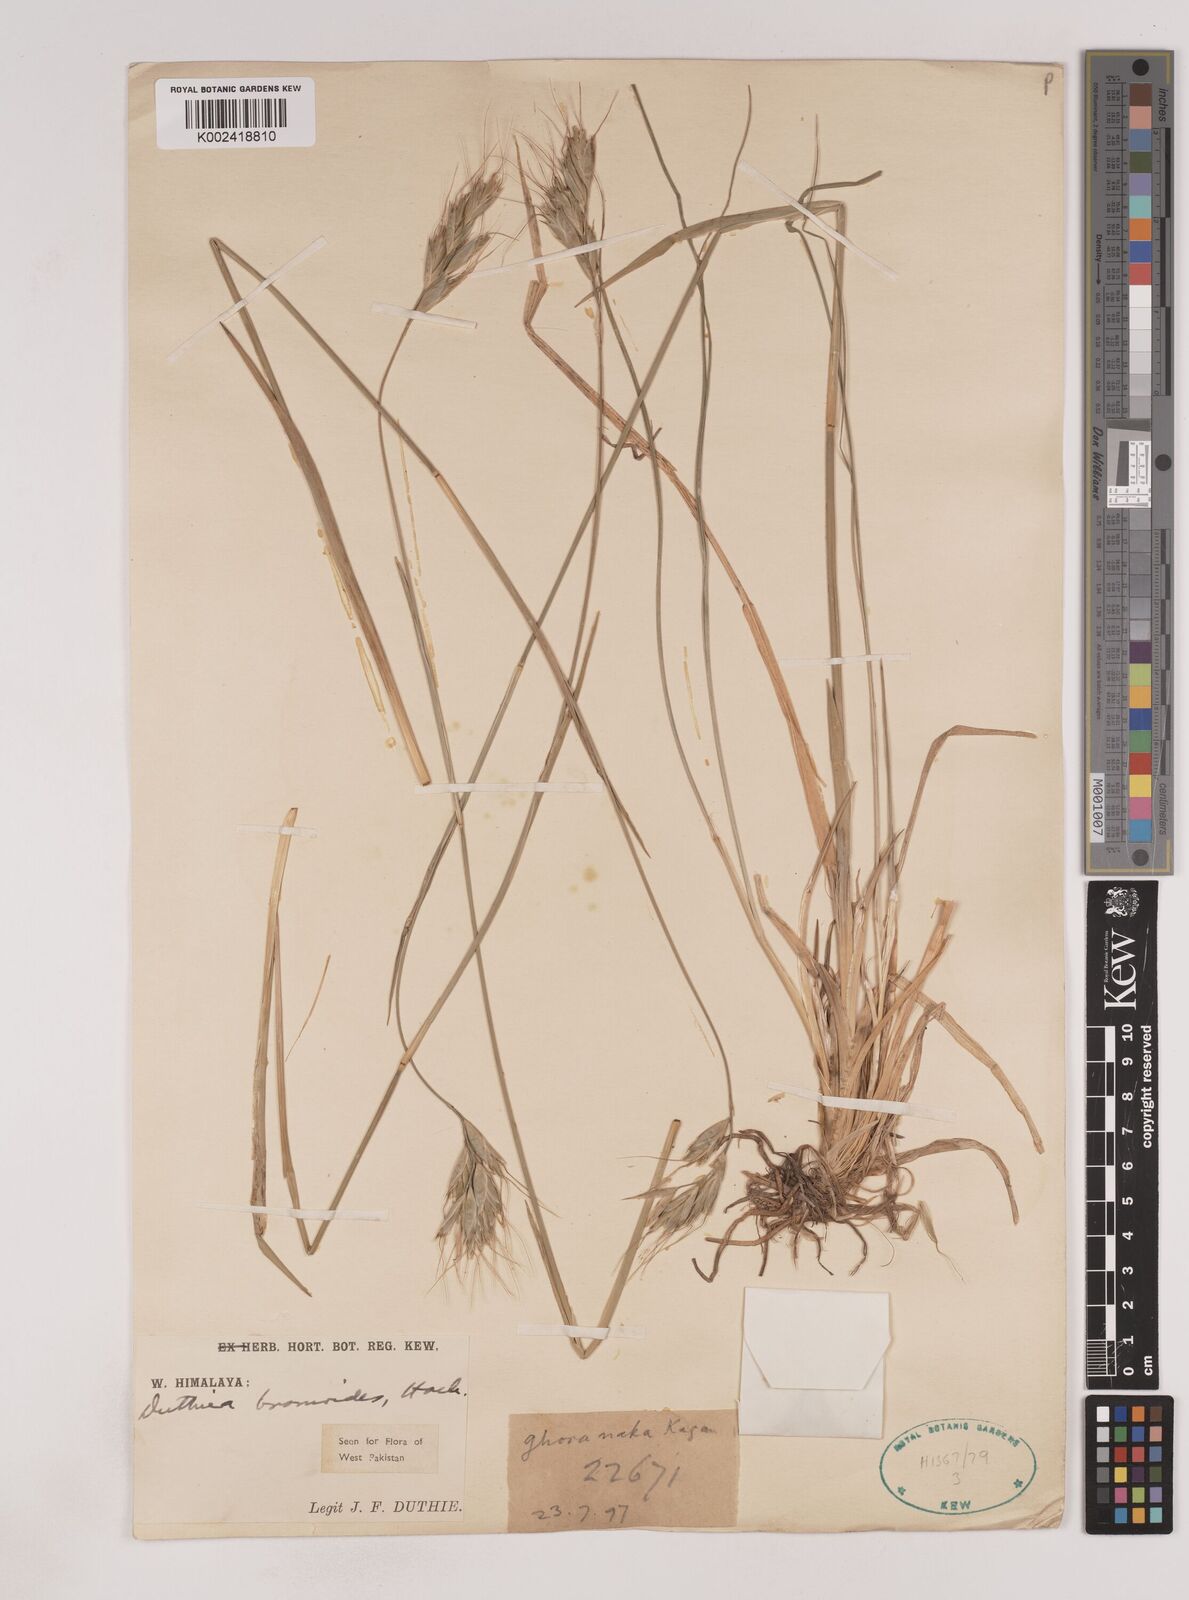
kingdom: Plantae
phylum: Tracheophyta
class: Liliopsida
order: Poales
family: Poaceae
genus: Duthiea
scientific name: Duthiea bromoides
